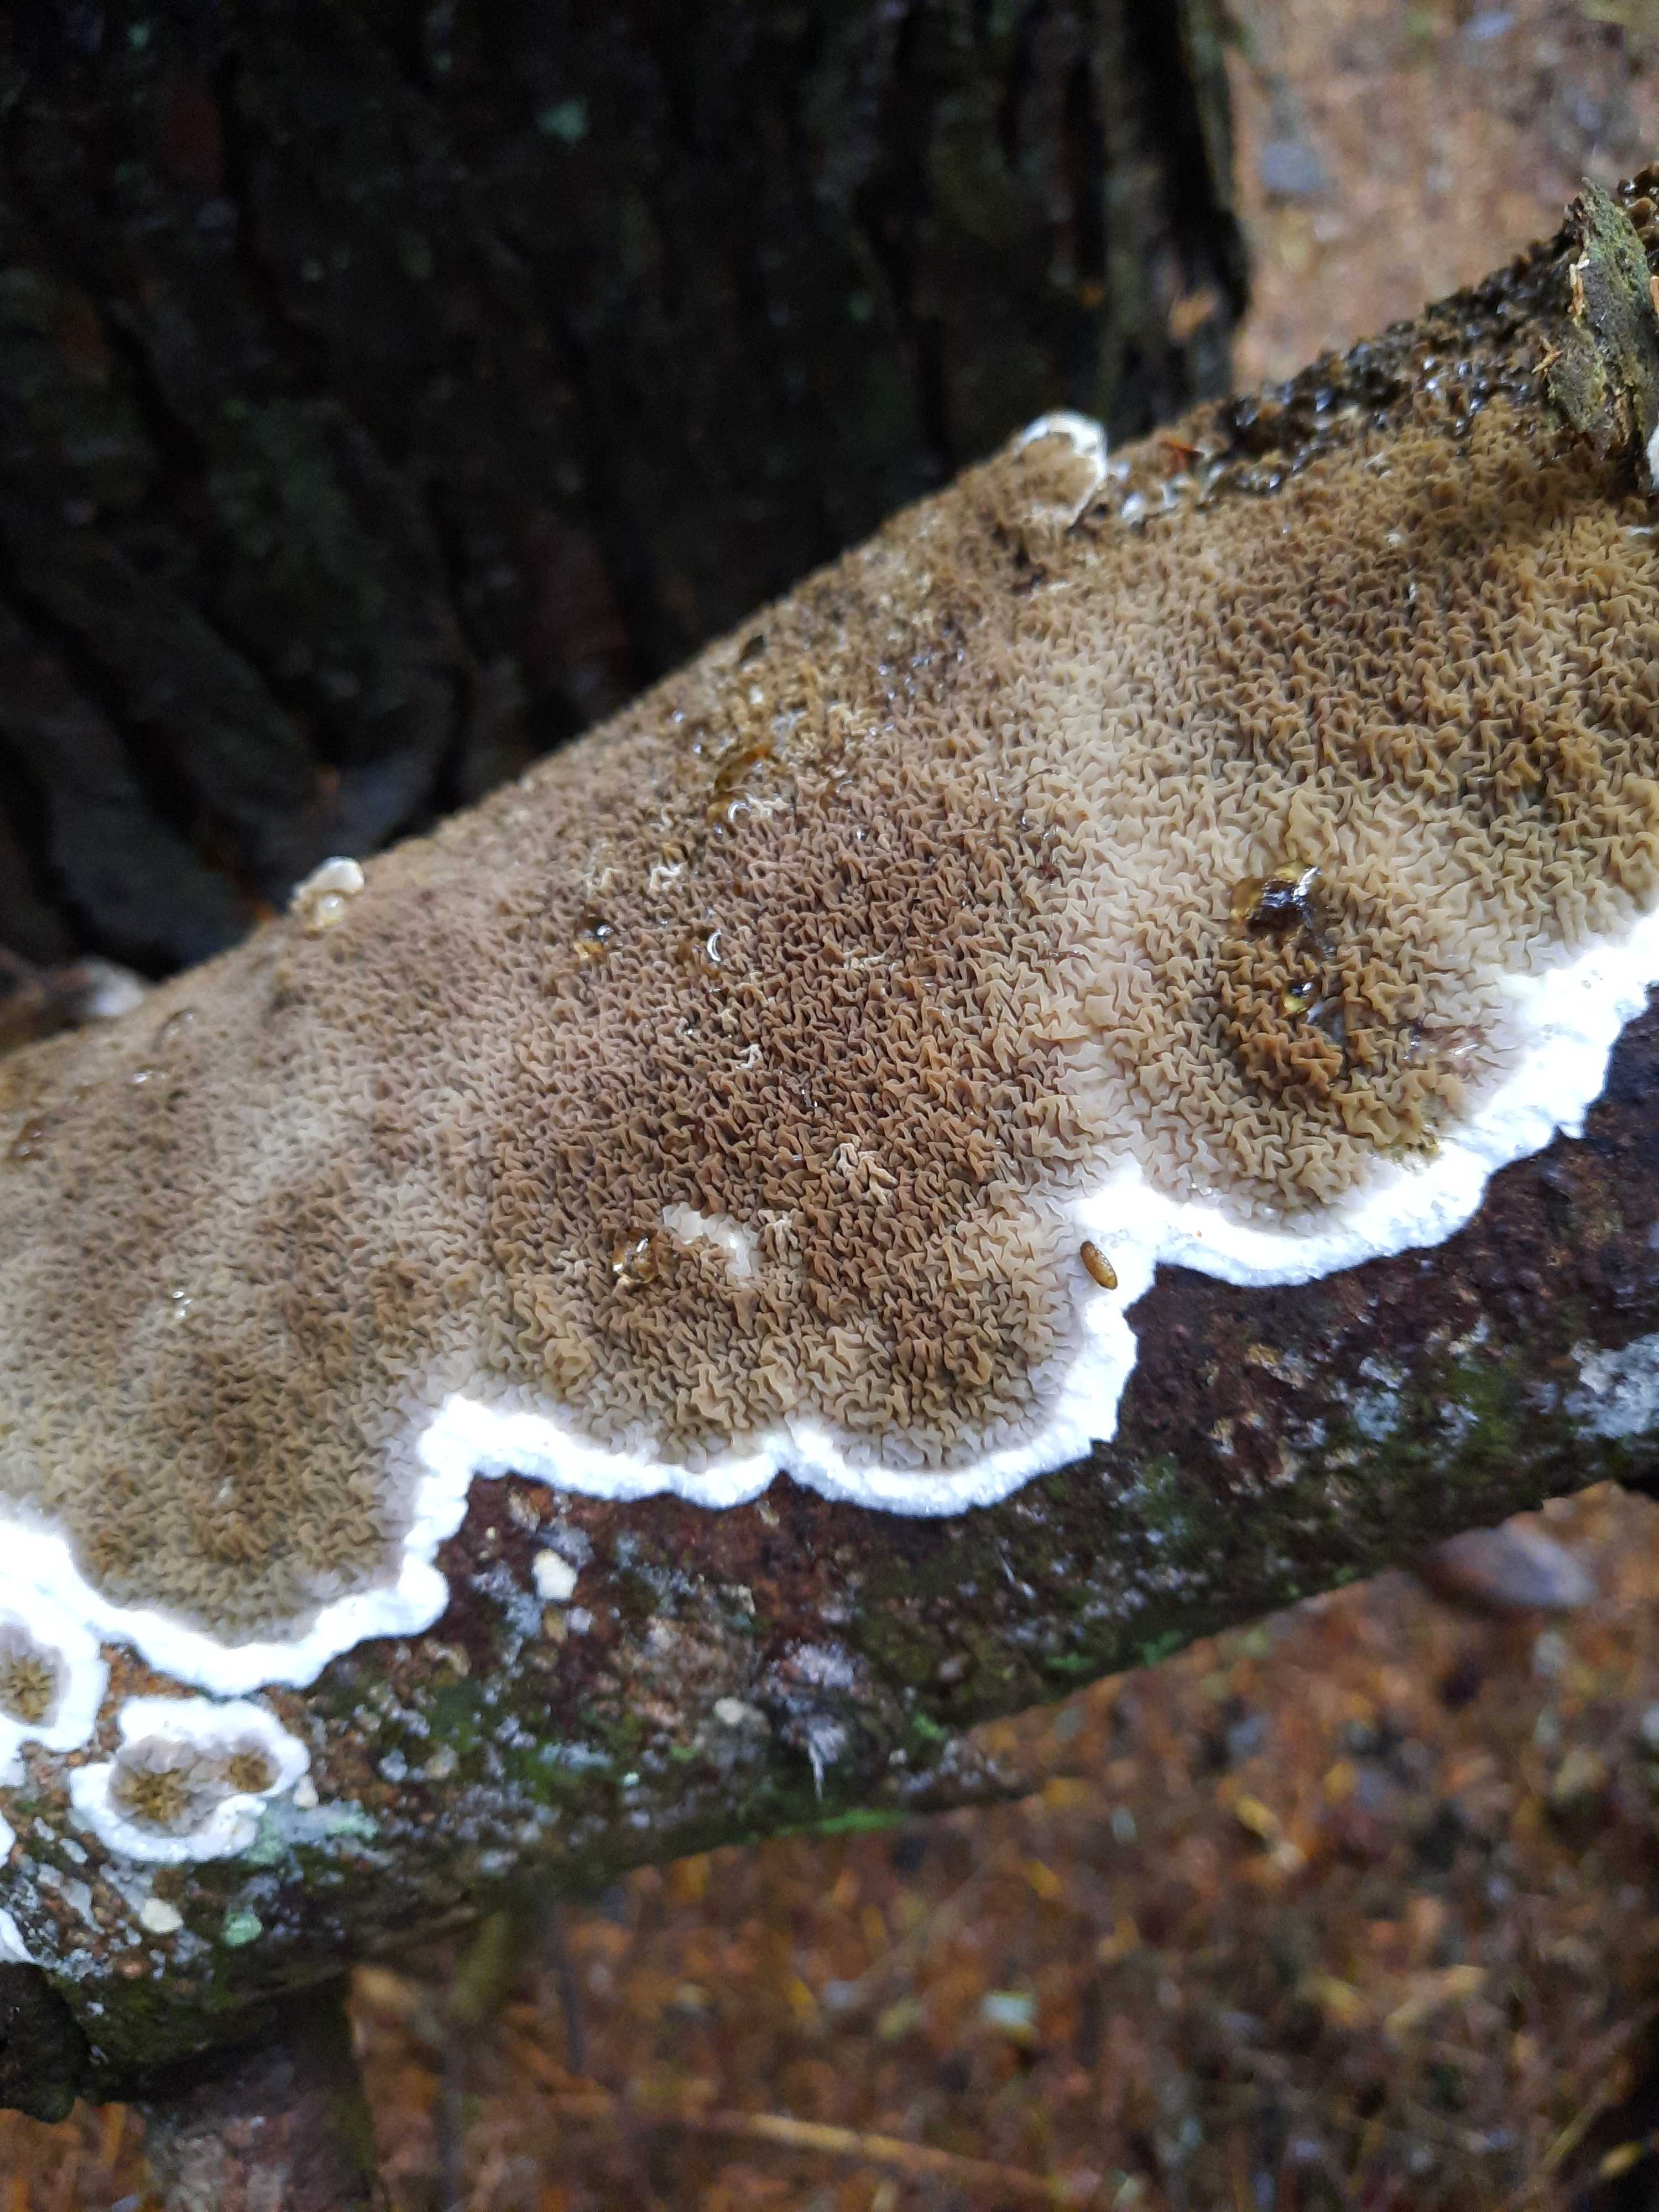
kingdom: Fungi
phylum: Basidiomycota
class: Agaricomycetes
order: Boletales
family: Serpulaceae
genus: Serpula
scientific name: Serpula himantioides
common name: tyndkødet hussvamp
